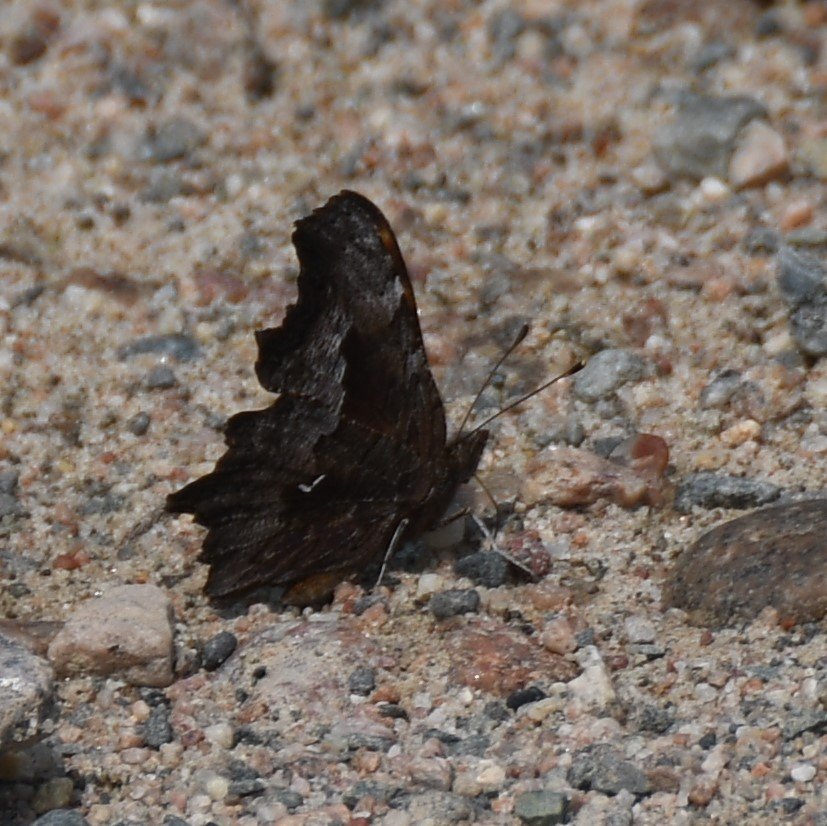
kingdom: Animalia
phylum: Arthropoda
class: Insecta
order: Lepidoptera
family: Nymphalidae
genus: Polygonia
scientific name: Polygonia gracilis
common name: Hoary Comma
